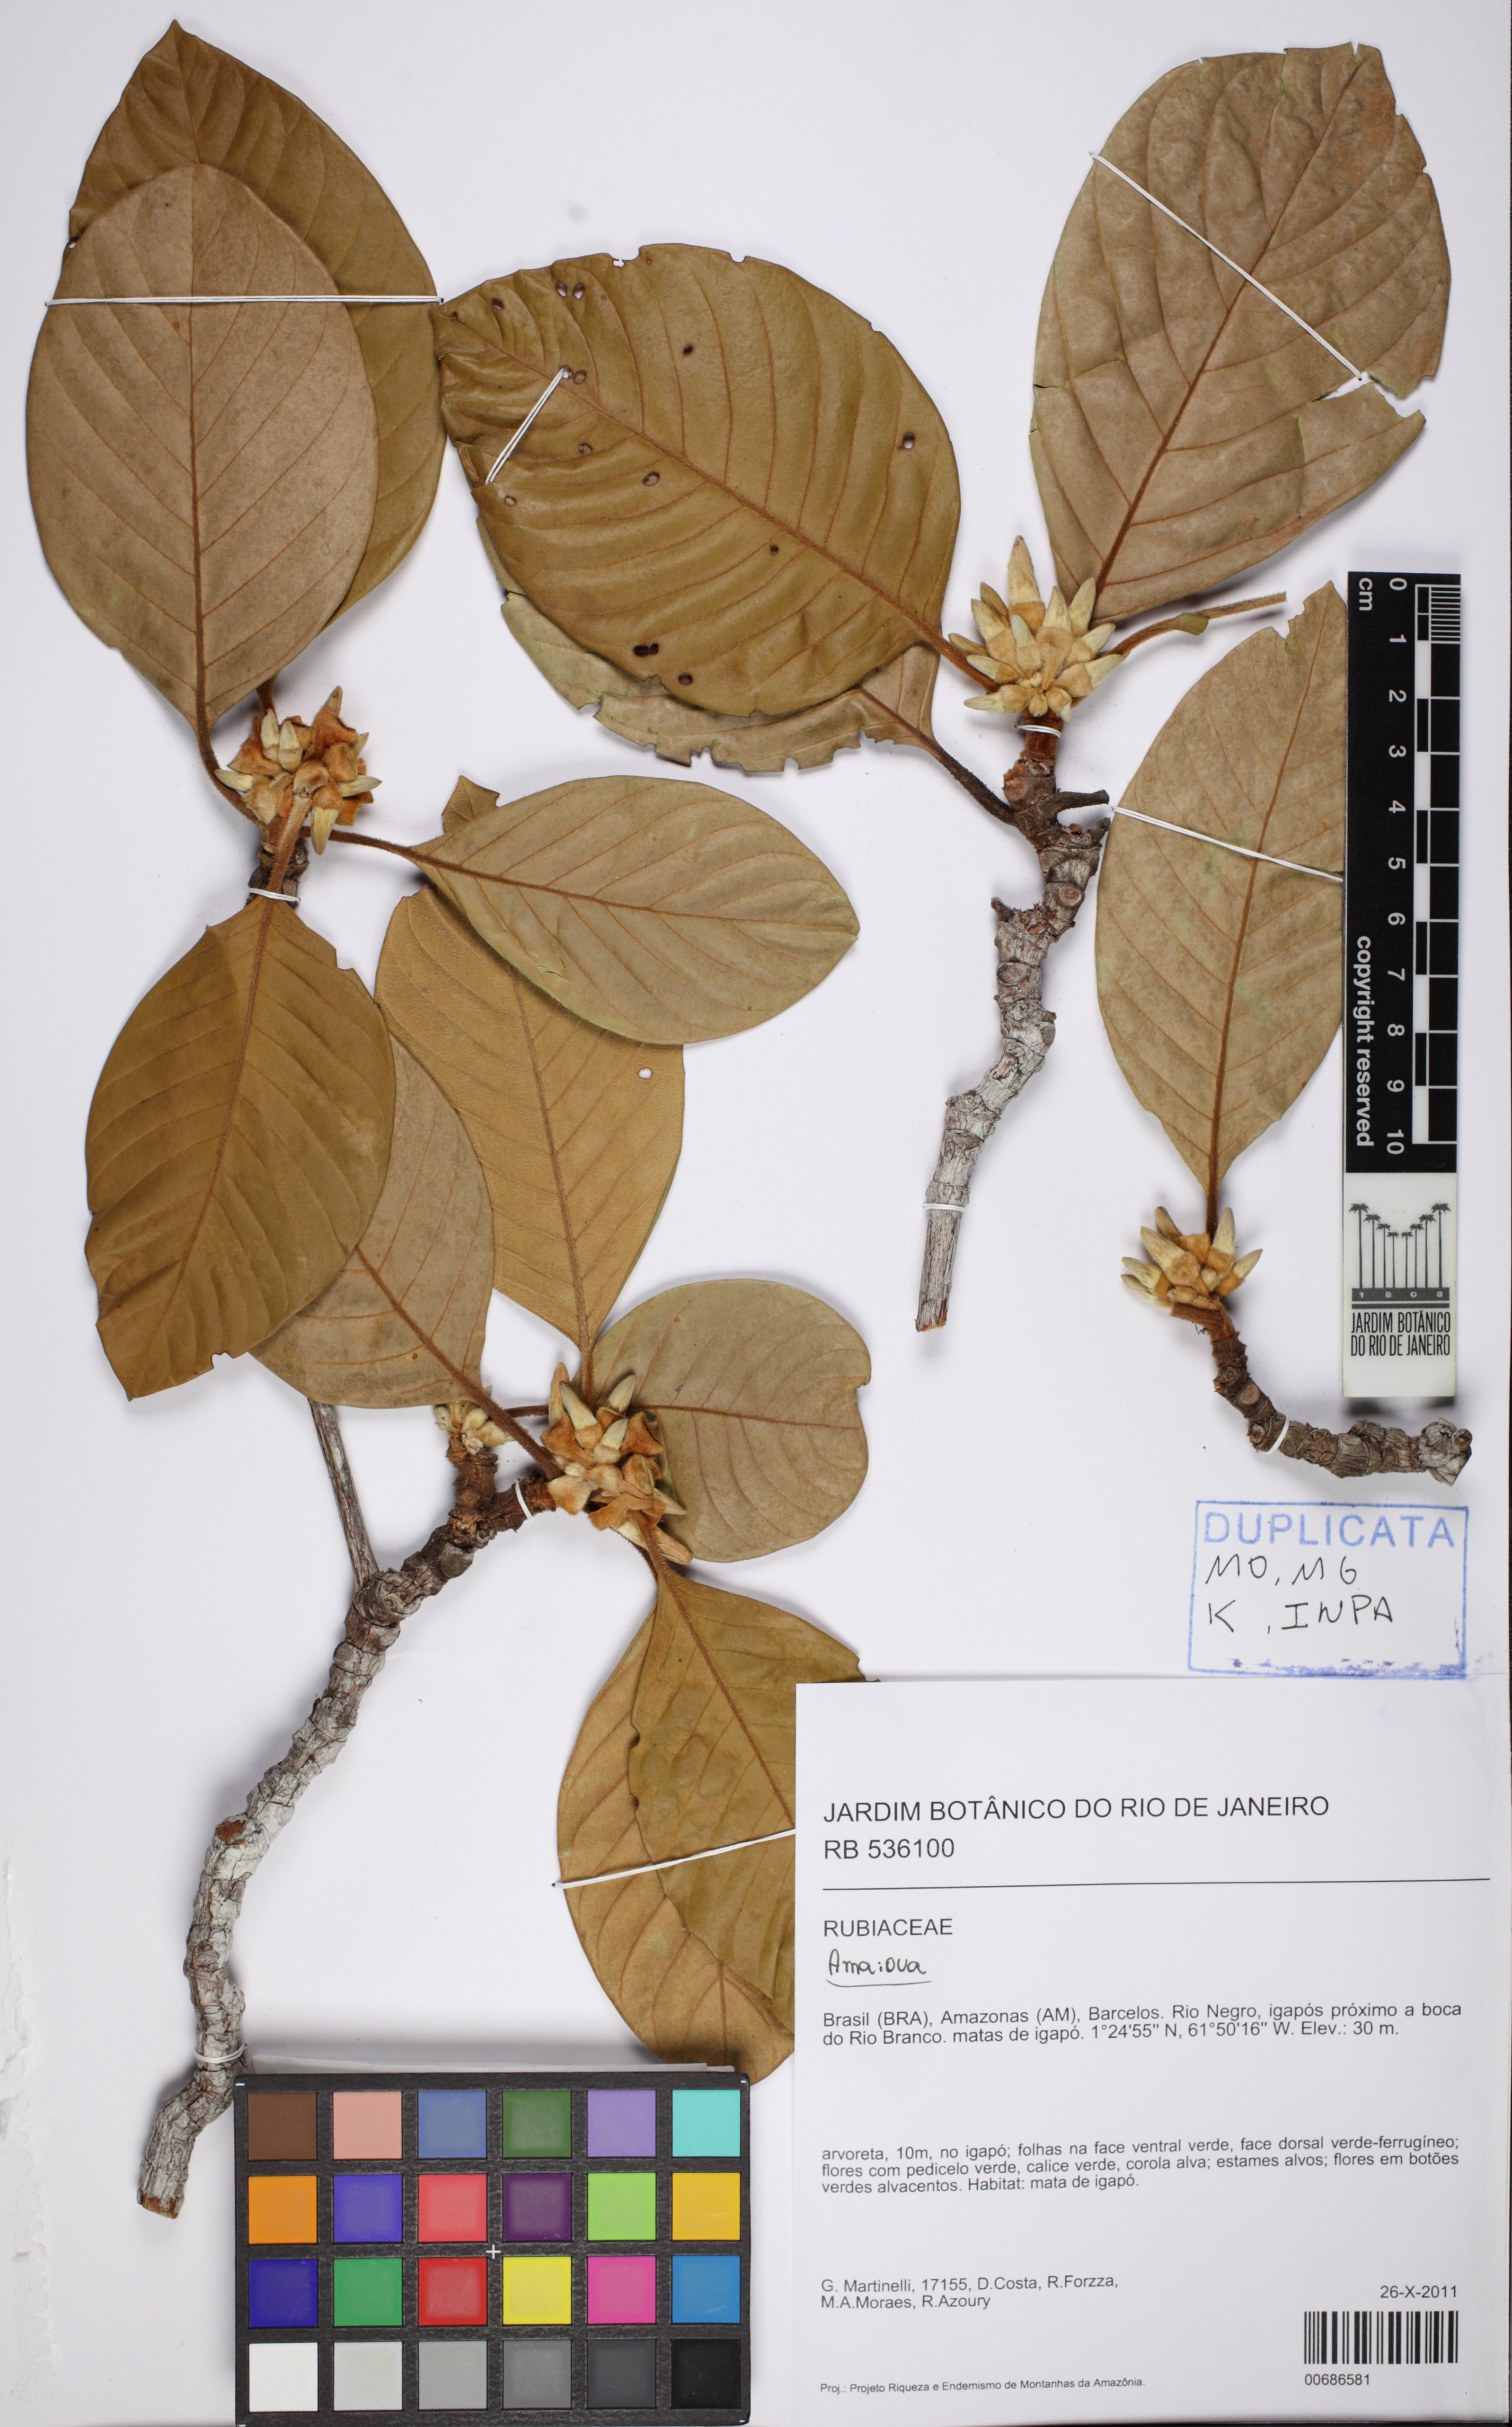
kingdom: Plantae
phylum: Tracheophyta
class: Magnoliopsida
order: Gentianales
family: Rubiaceae
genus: Duroia
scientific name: Duroia velutina
